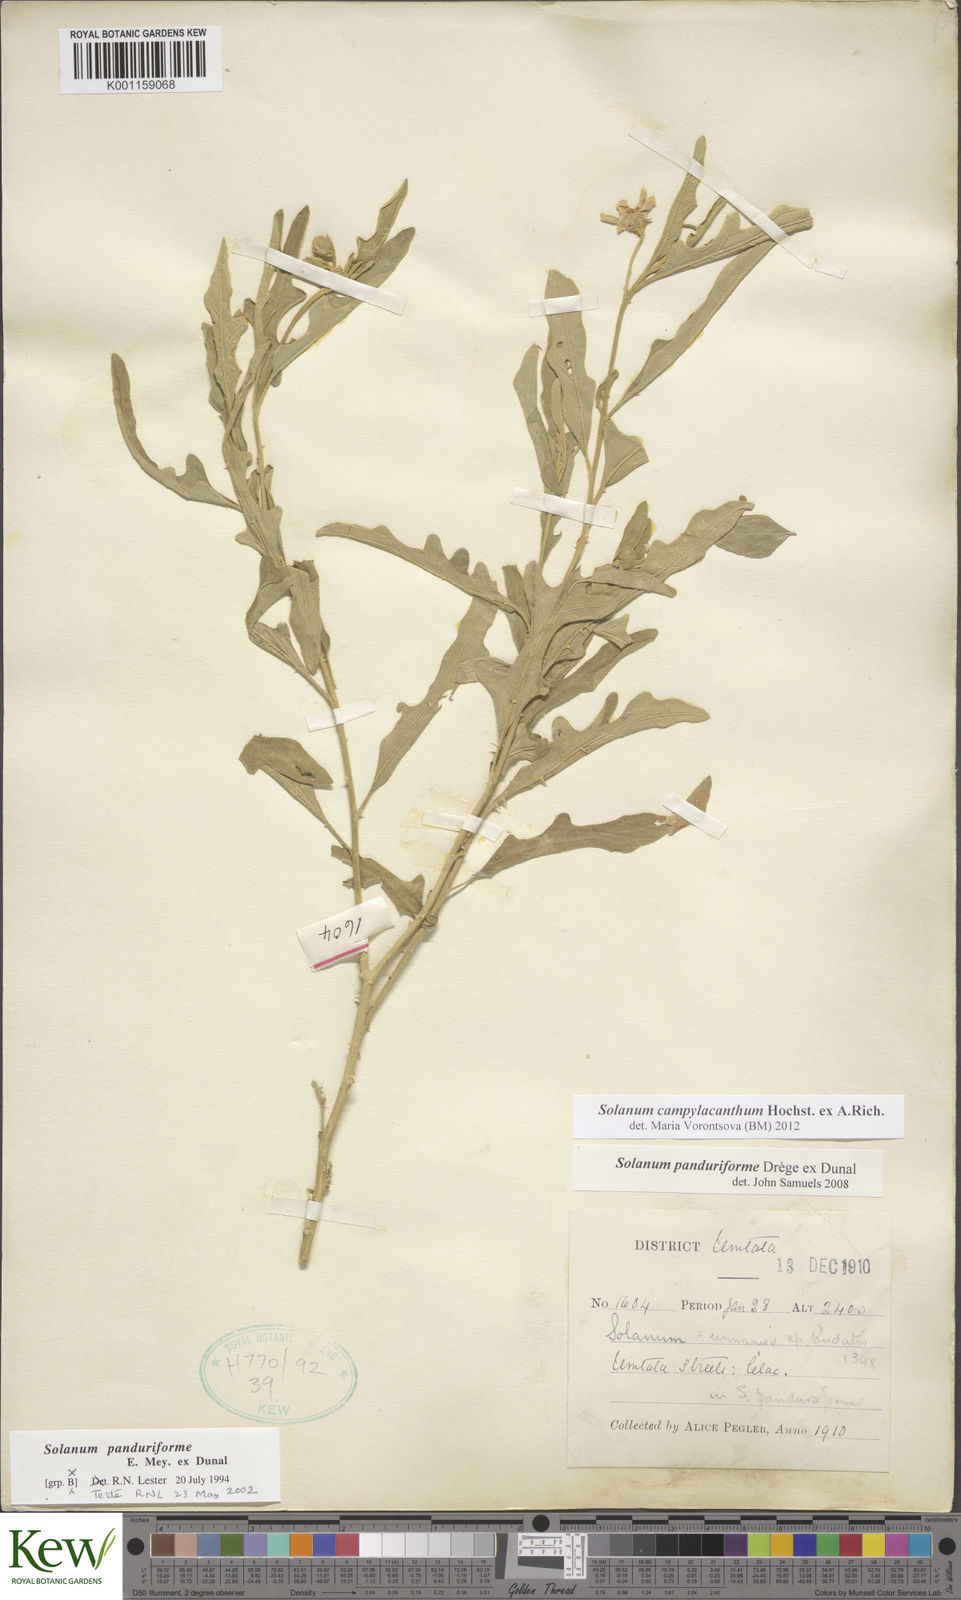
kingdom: Plantae
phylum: Tracheophyta
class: Magnoliopsida
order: Solanales
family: Solanaceae
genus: Solanum
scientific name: Solanum campylacanthum
